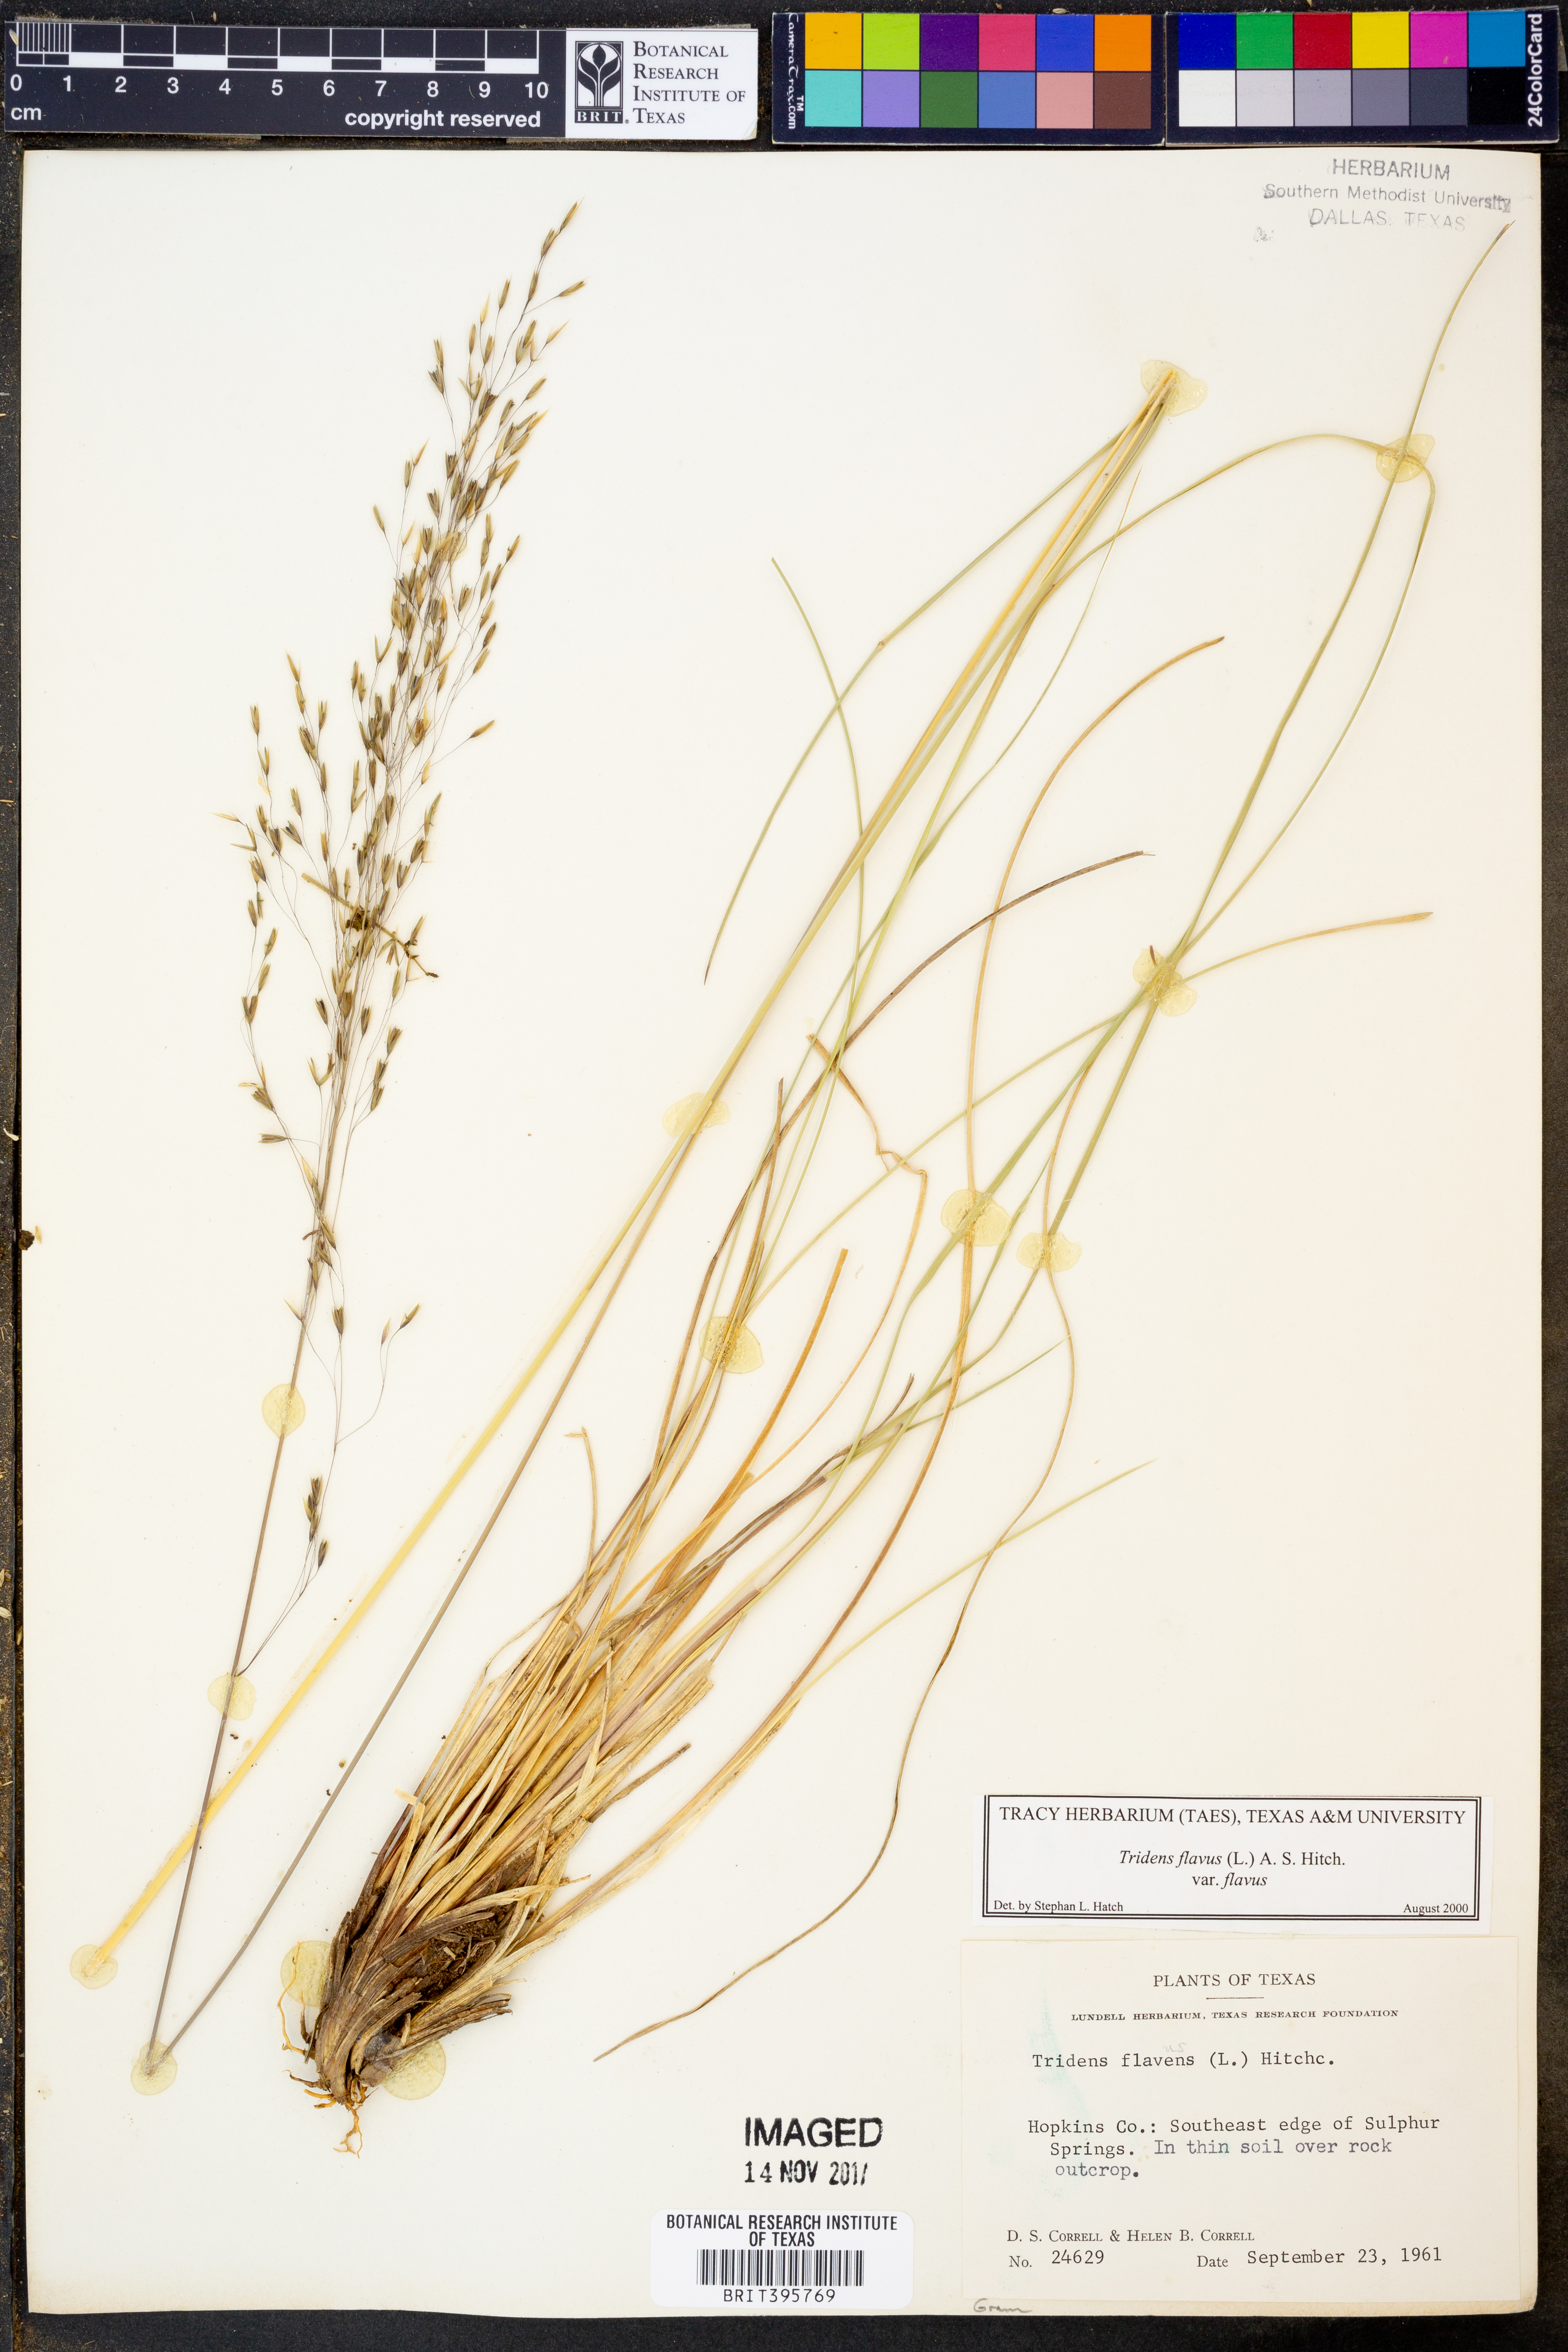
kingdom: Plantae
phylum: Tracheophyta
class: Liliopsida
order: Poales
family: Poaceae
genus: Tridens
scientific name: Tridens flavus
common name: Purpletop
